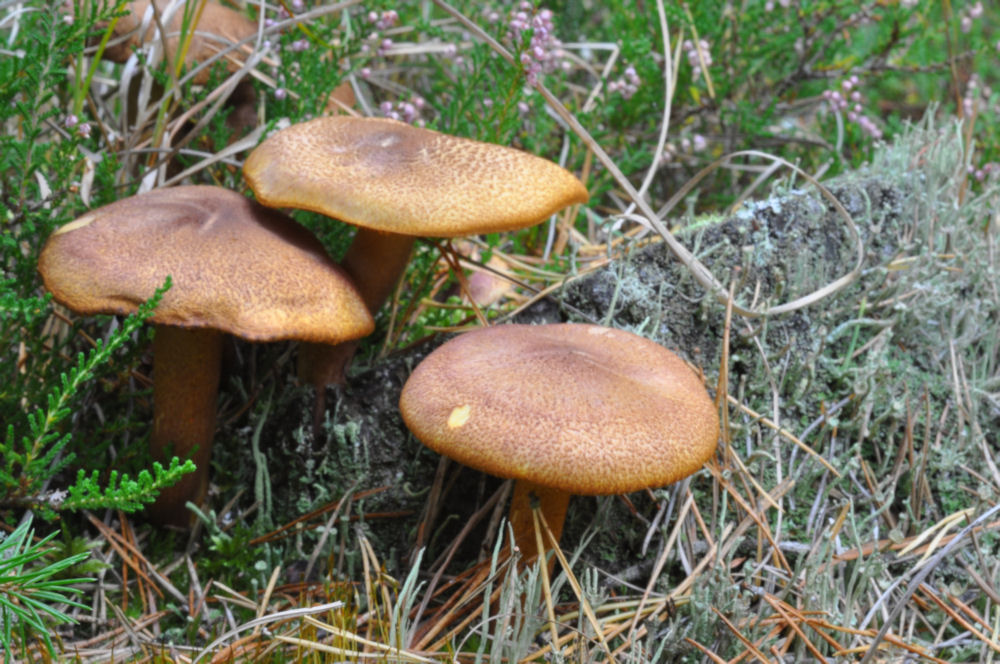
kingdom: Fungi
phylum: Basidiomycota
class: Agaricomycetes
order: Agaricales
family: Tricholomataceae
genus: Tricholomopsis
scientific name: Tricholomopsis rutilans
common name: purpur-væbnerhat
